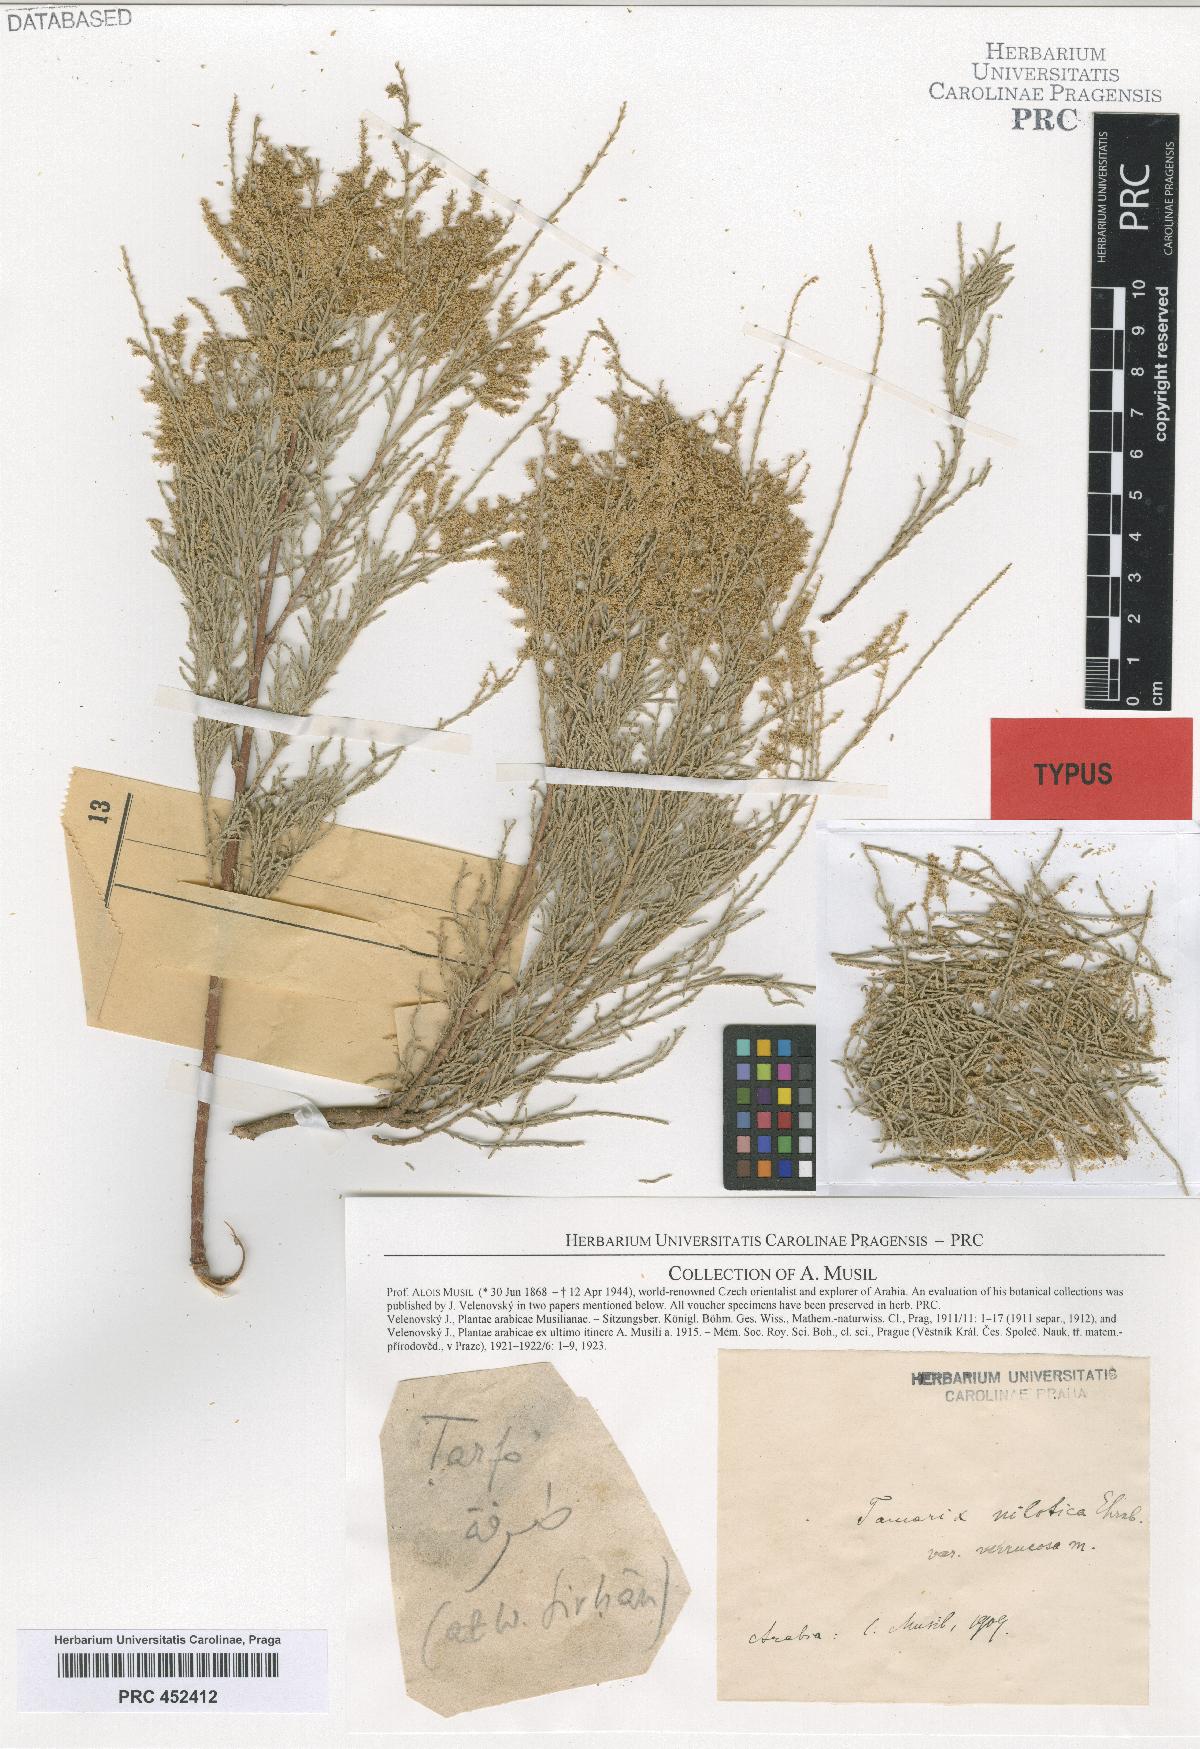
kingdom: Plantae
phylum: Tracheophyta
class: Magnoliopsida
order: Caryophyllales
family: Tamaricaceae
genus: Tamarix
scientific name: Tamarix nilotica
